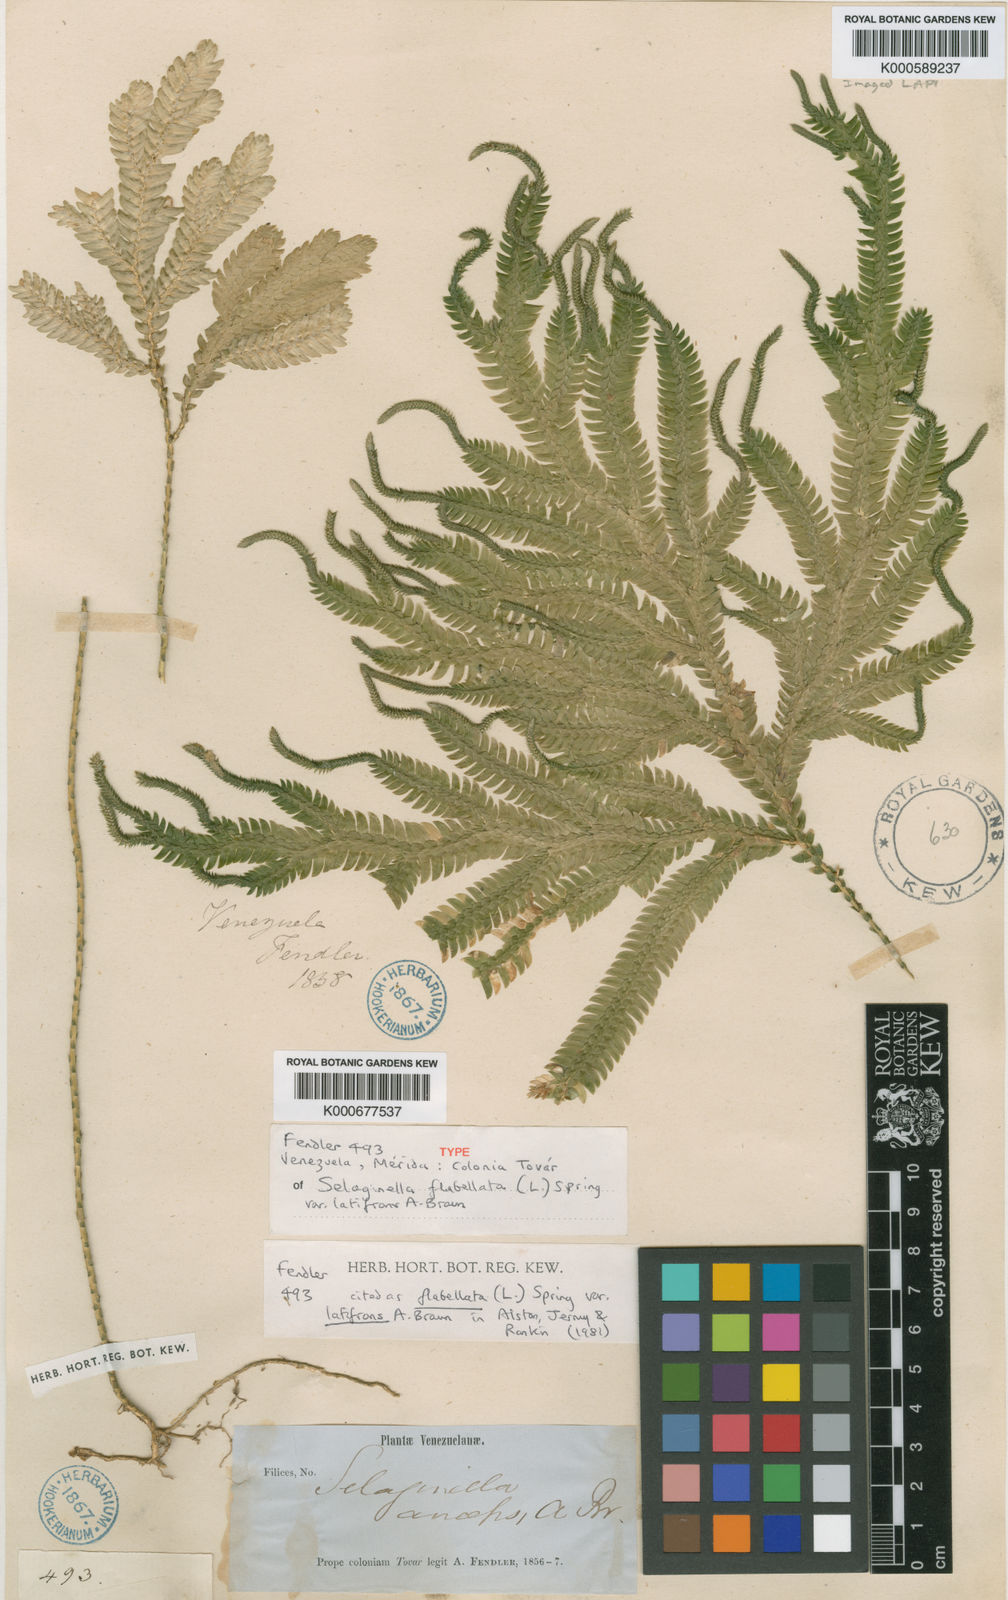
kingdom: Plantae
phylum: Tracheophyta
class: Lycopodiopsida
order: Selaginellales
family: Selaginellaceae
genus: Selaginella
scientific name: Selaginella flabellata
